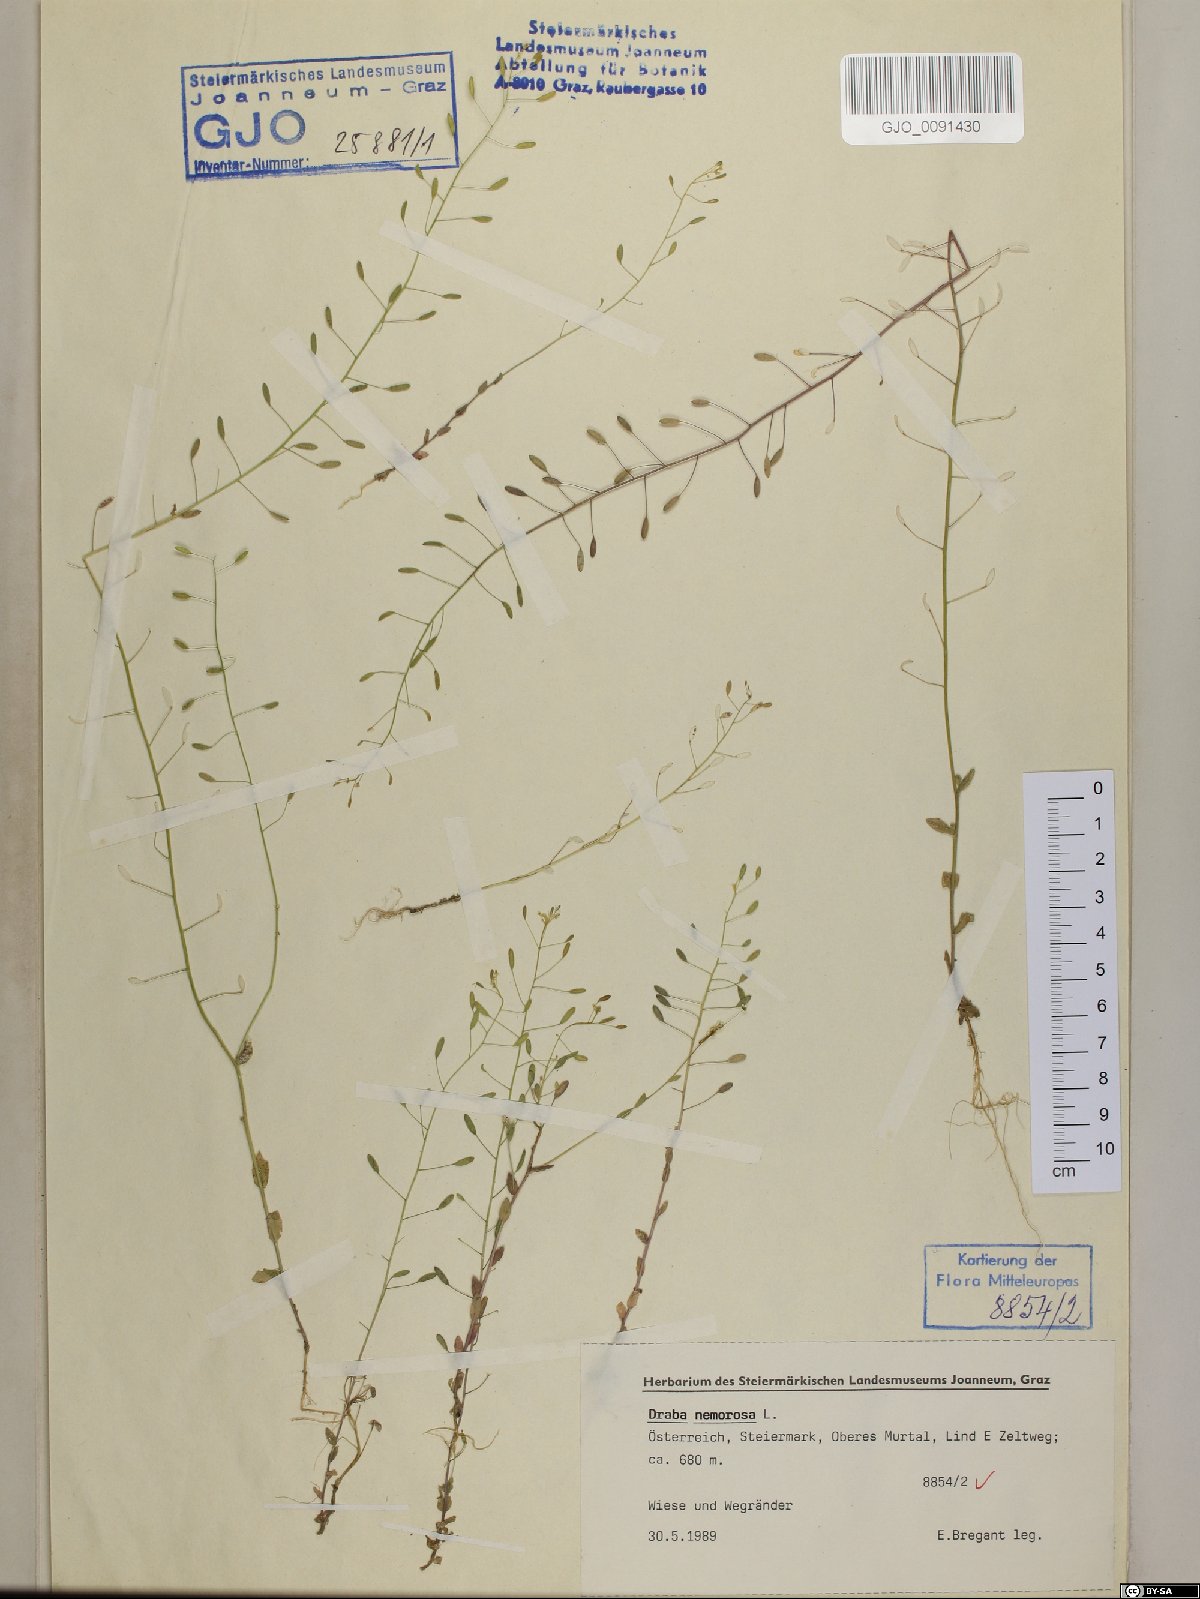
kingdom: Plantae
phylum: Tracheophyta
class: Magnoliopsida
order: Brassicales
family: Brassicaceae
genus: Draba
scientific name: Draba nemorosa
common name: Wood whitlow-grass
